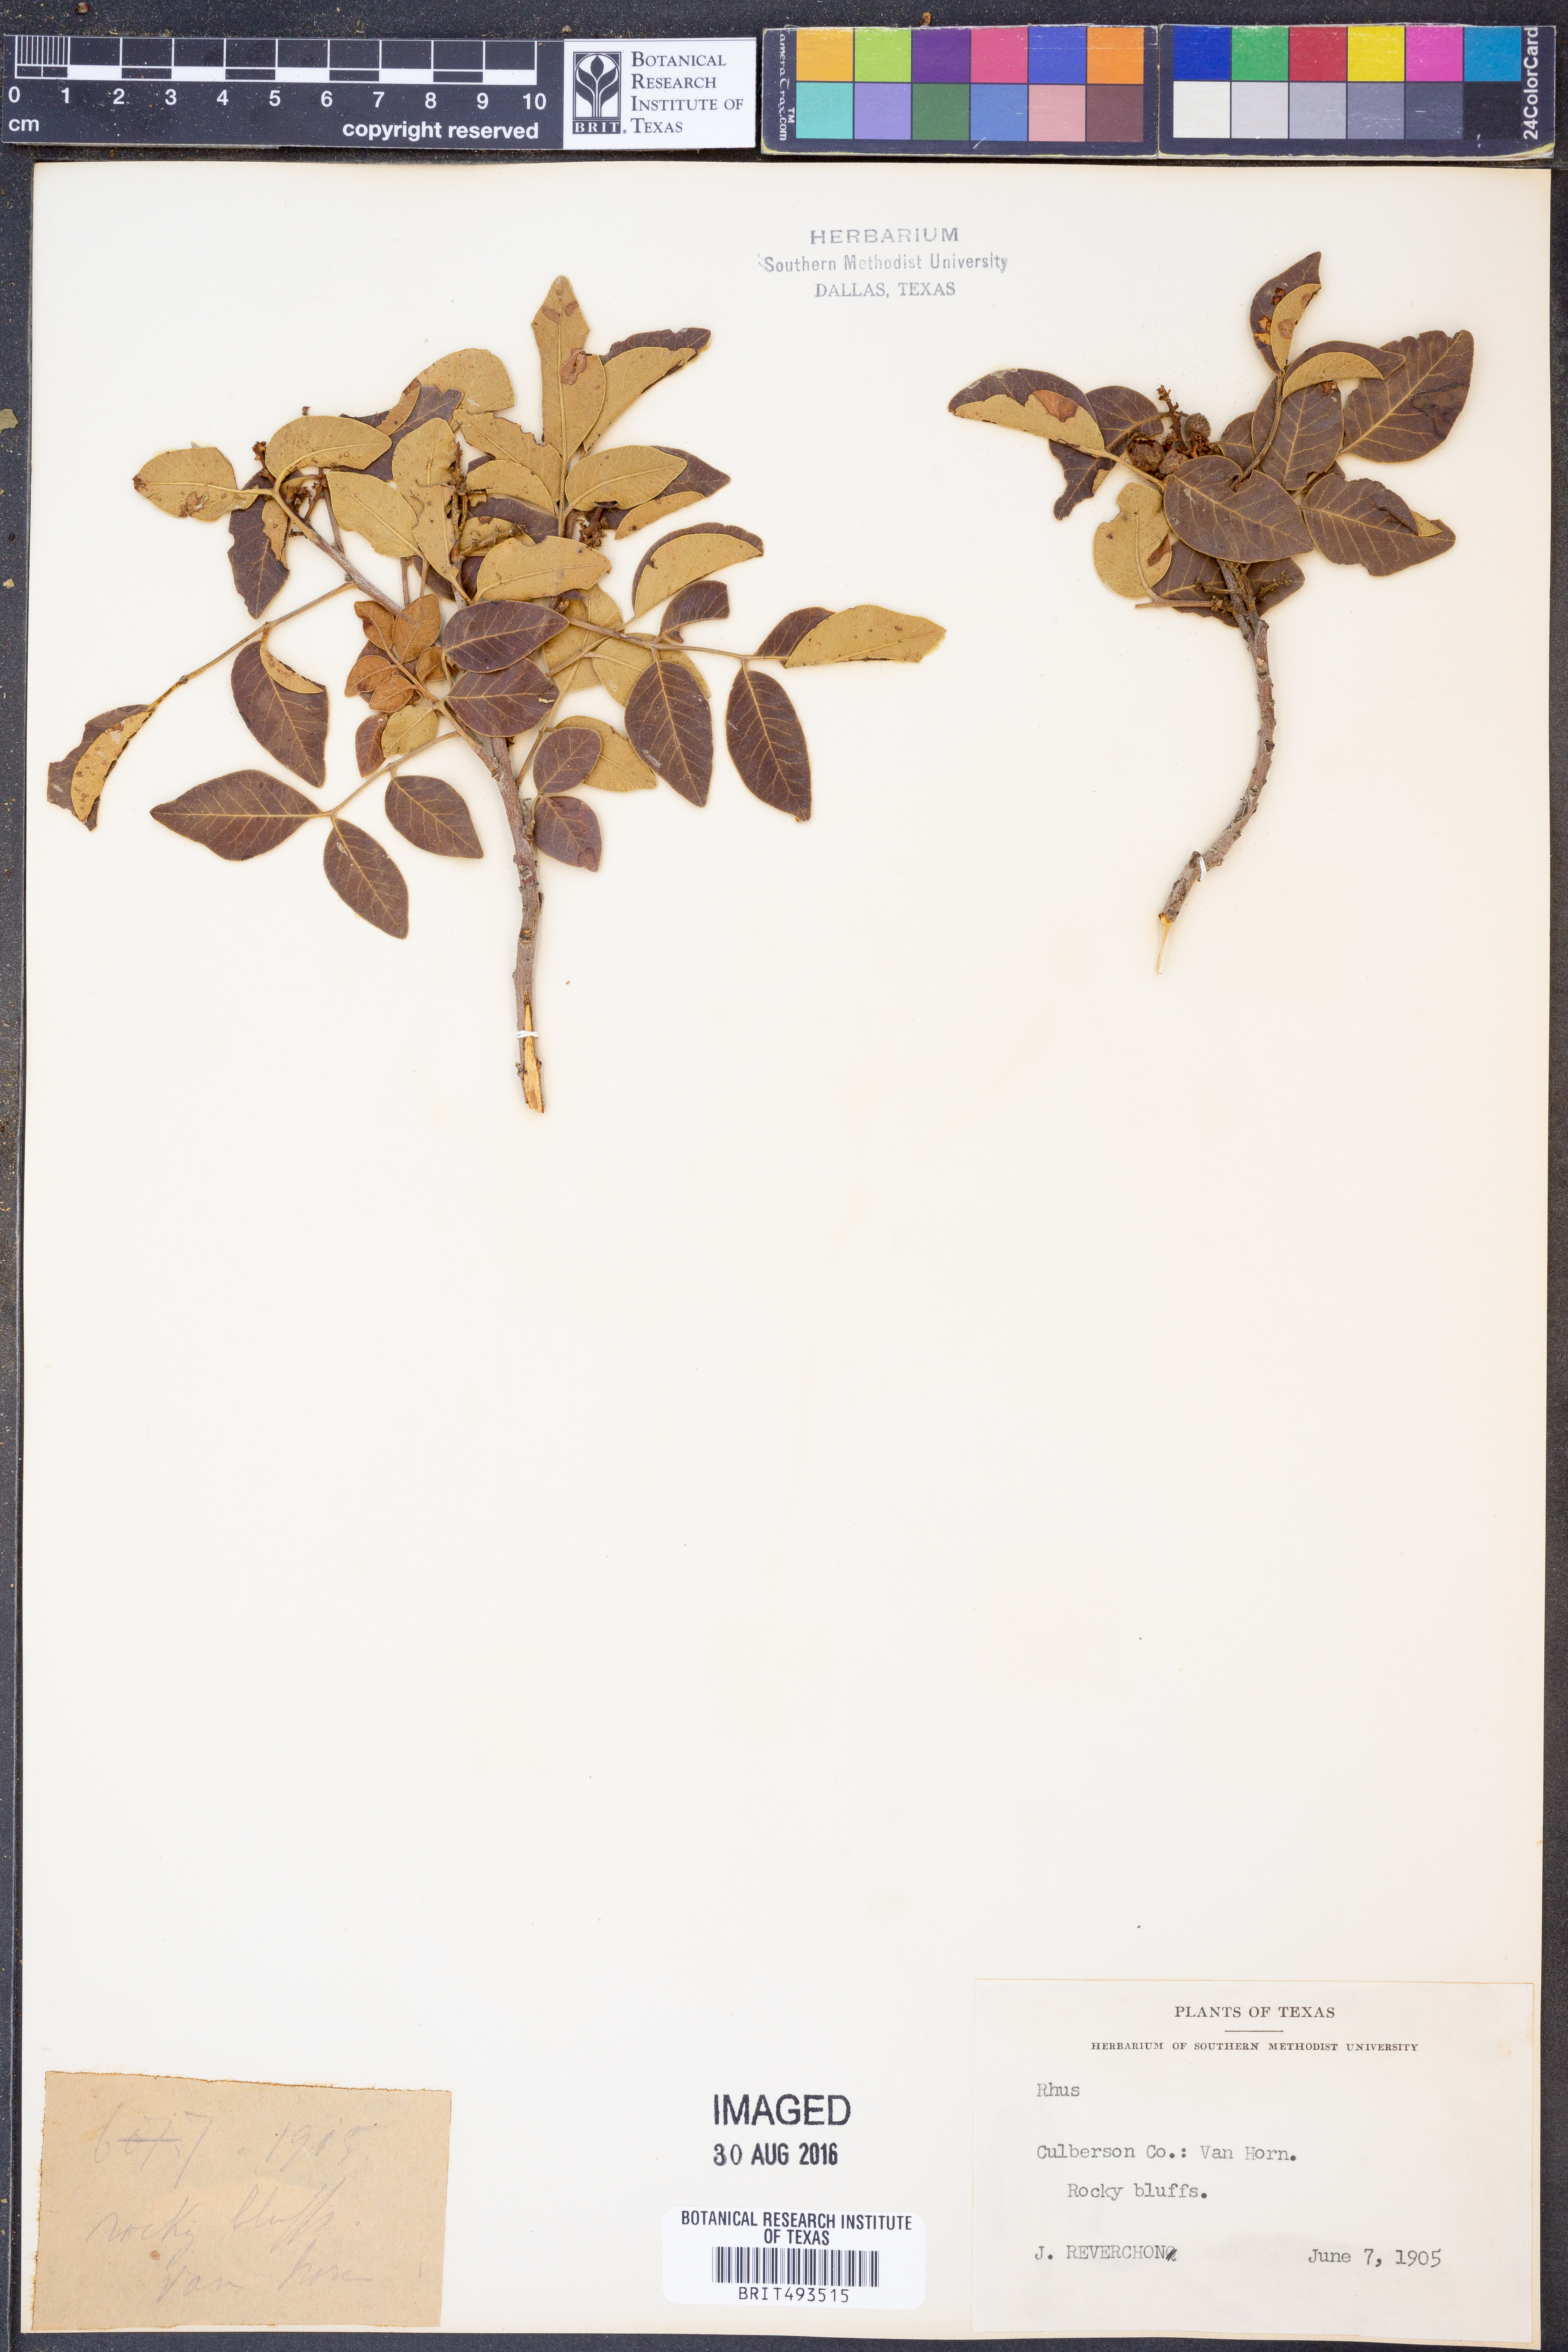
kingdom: Plantae
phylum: Tracheophyta
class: Magnoliopsida
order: Sapindales
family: Anacardiaceae
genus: Rhus
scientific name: Rhus
